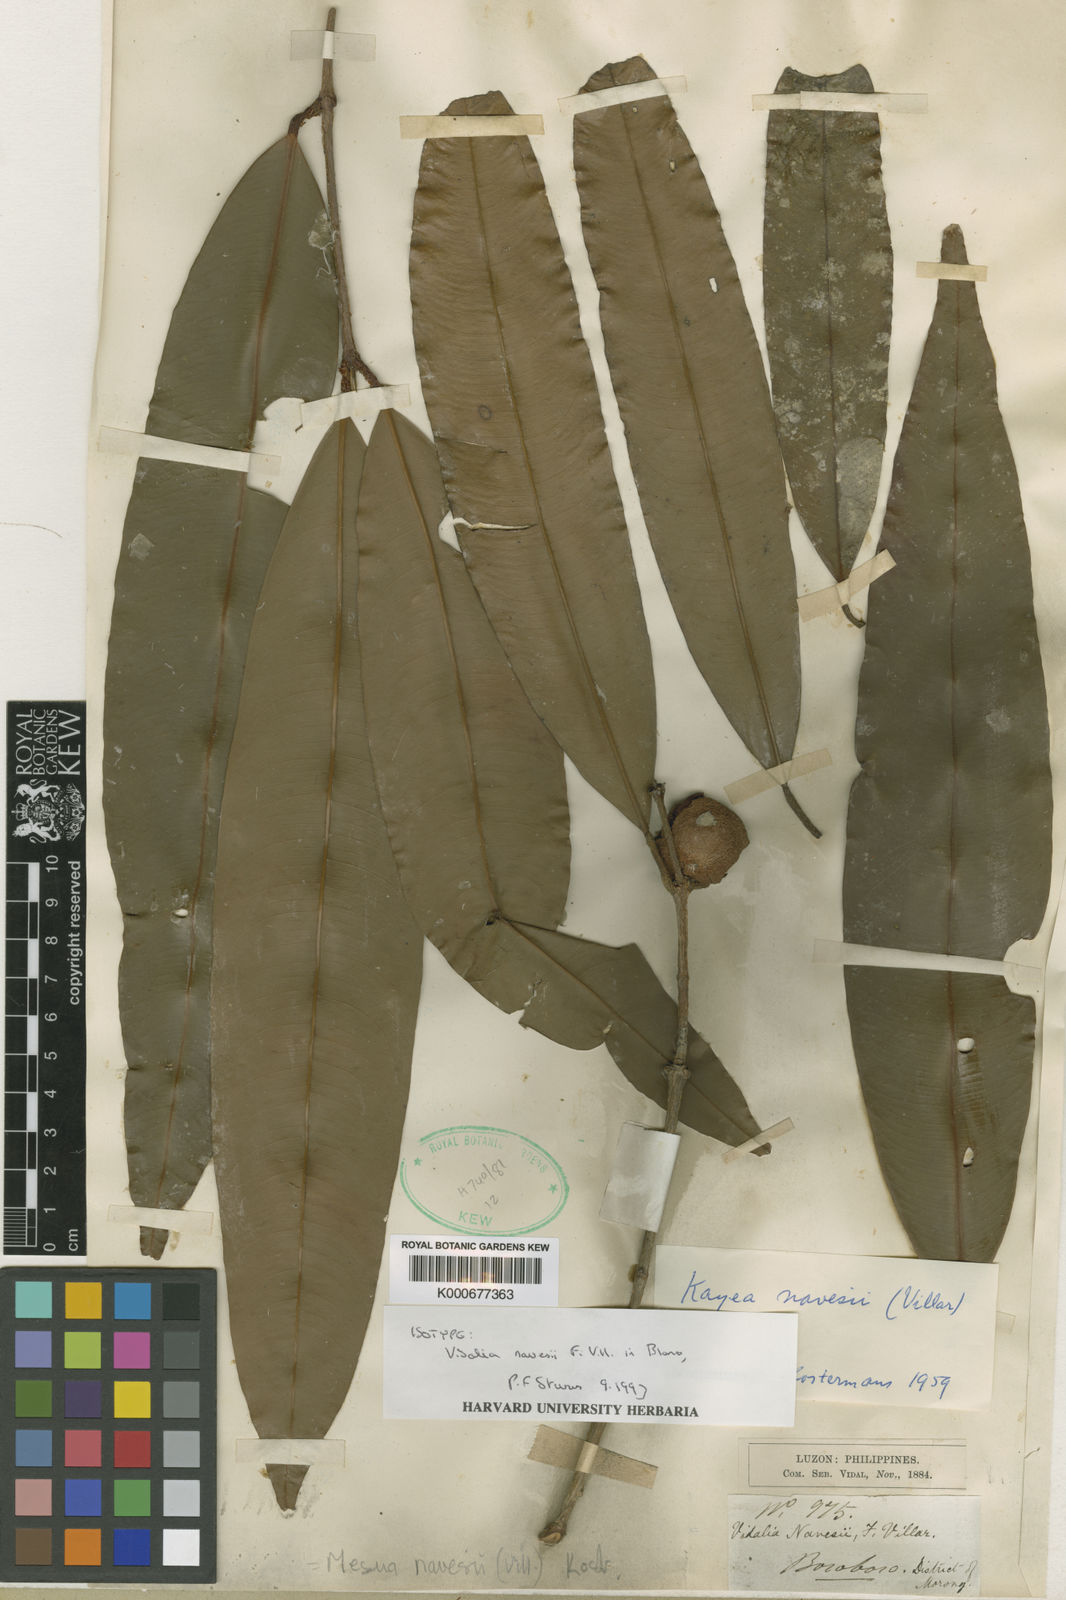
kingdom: Plantae
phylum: Tracheophyta
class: Magnoliopsida
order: Malpighiales
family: Calophyllaceae
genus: Kayea
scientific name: Kayea navesii
